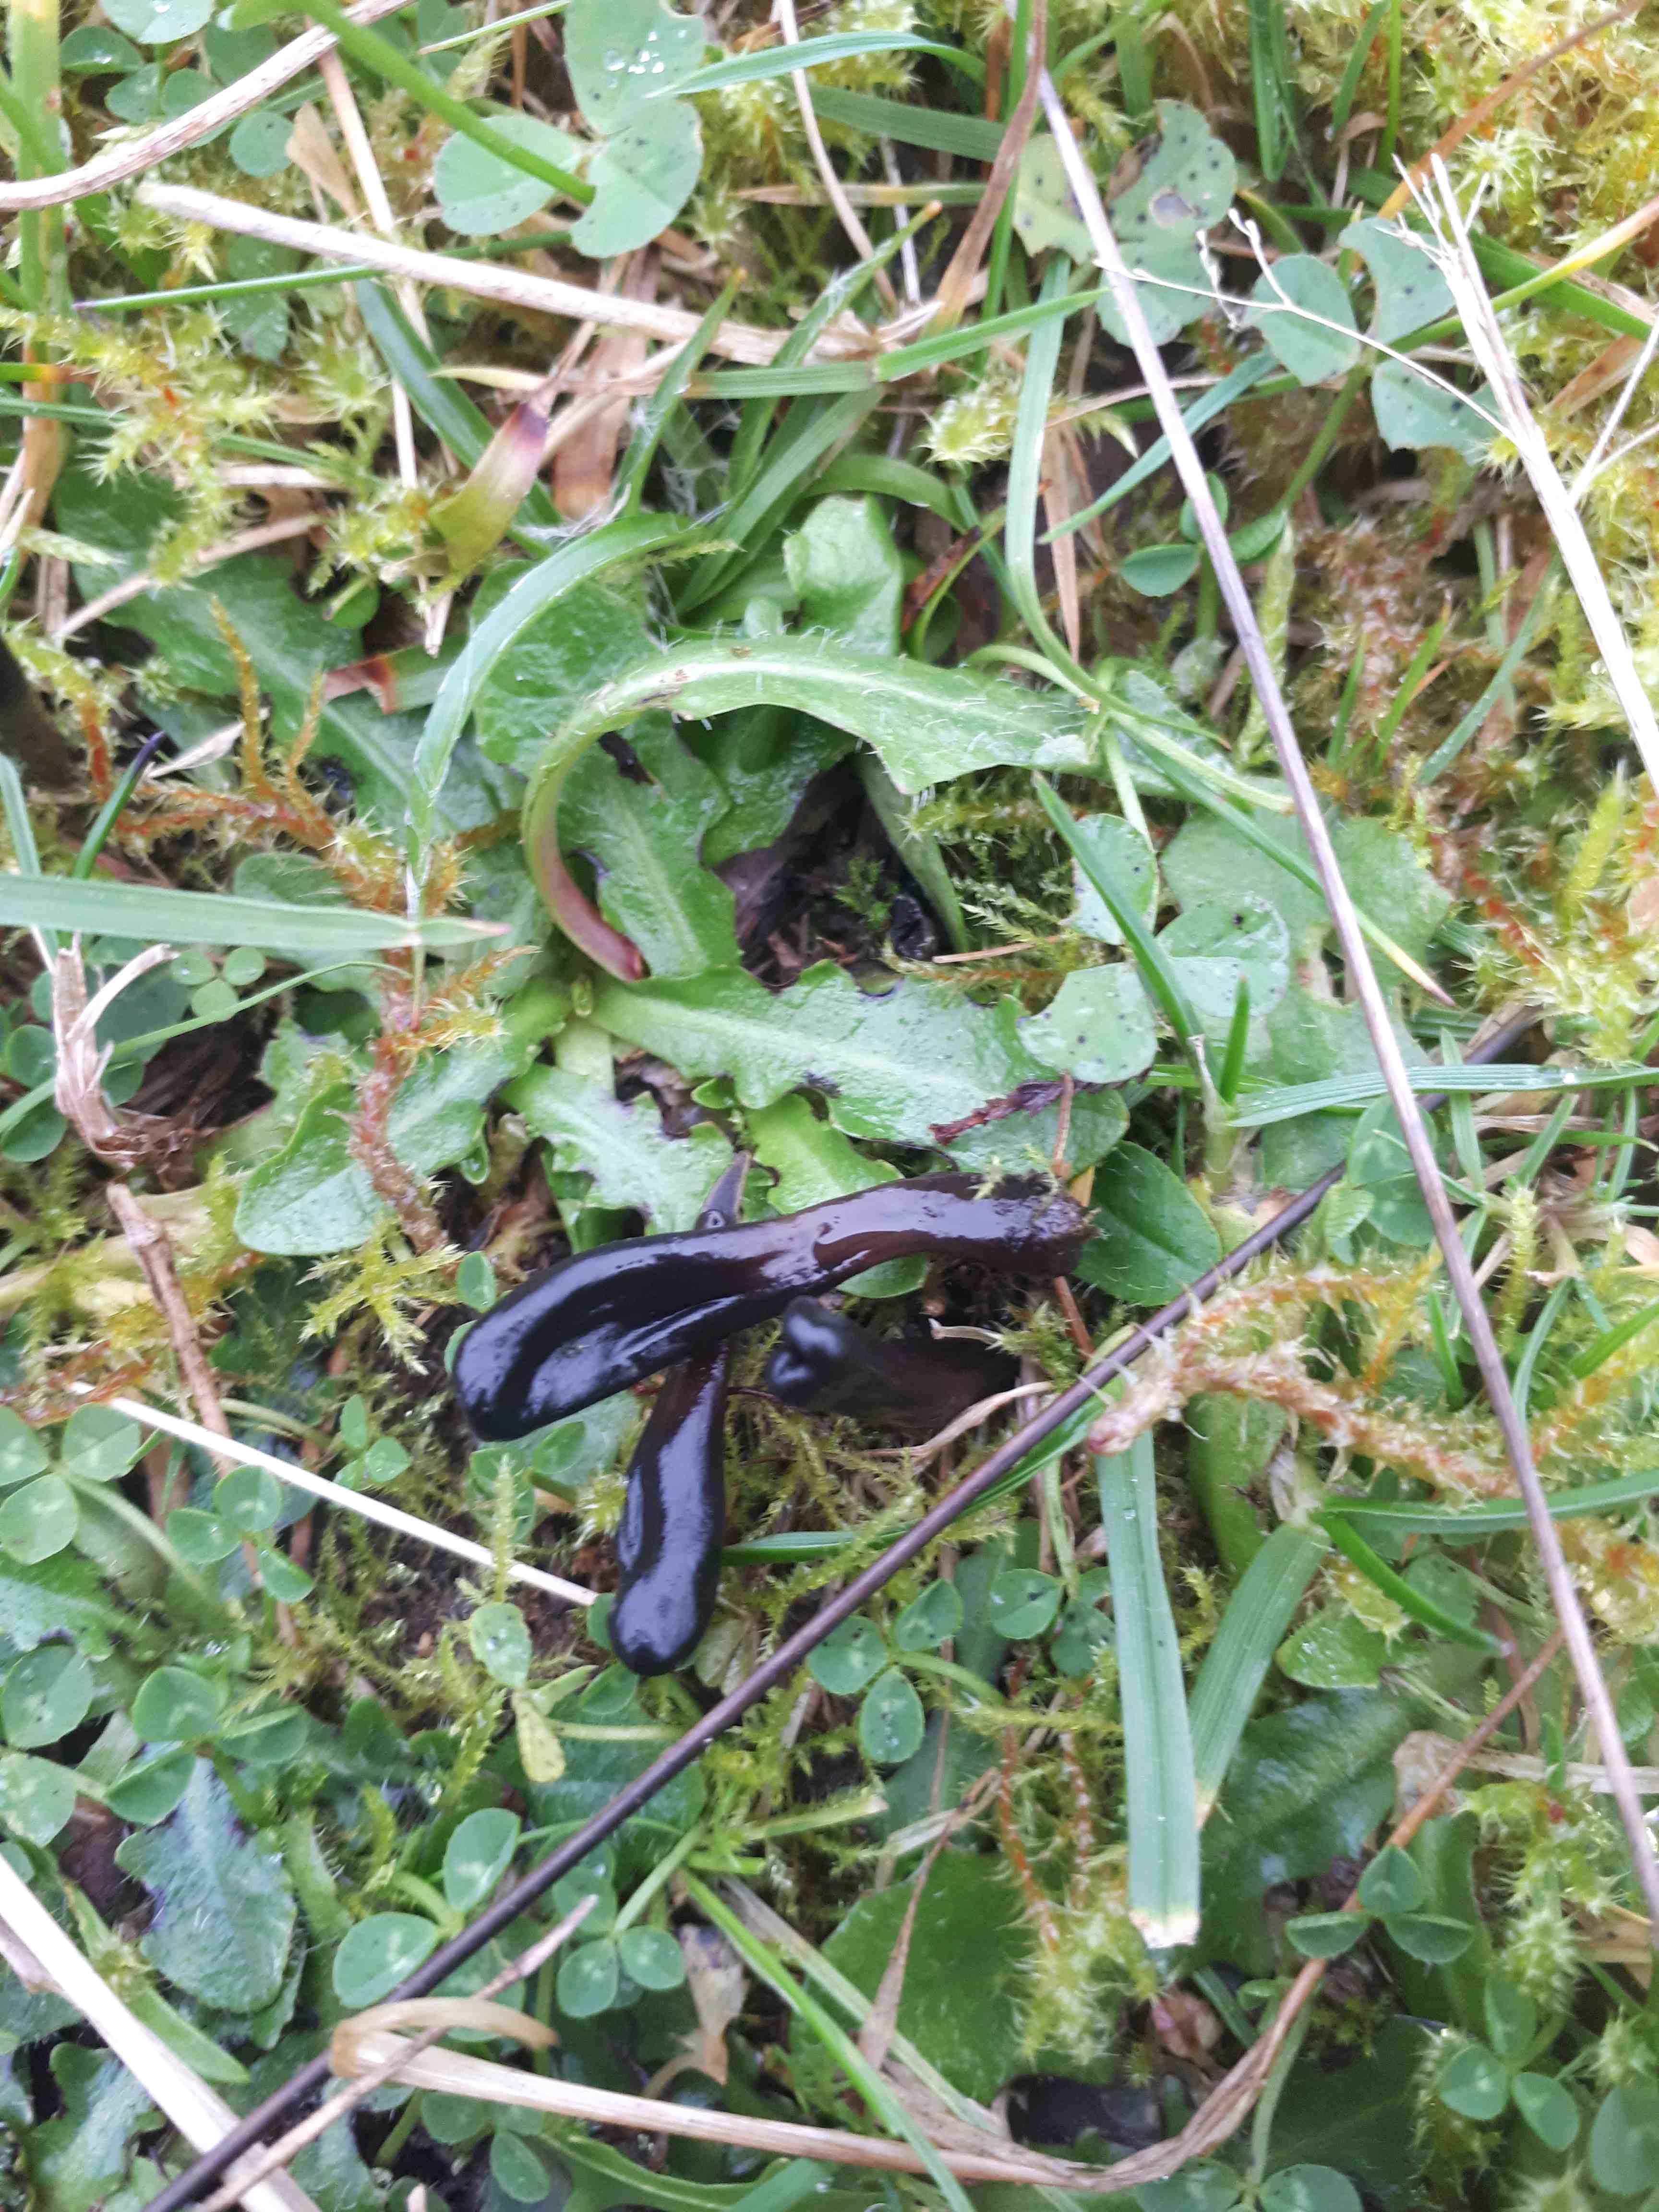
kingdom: Fungi
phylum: Ascomycota
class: Geoglossomycetes
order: Geoglossales
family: Geoglossaceae
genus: Glutinoglossum
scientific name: Glutinoglossum
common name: jordtunge
